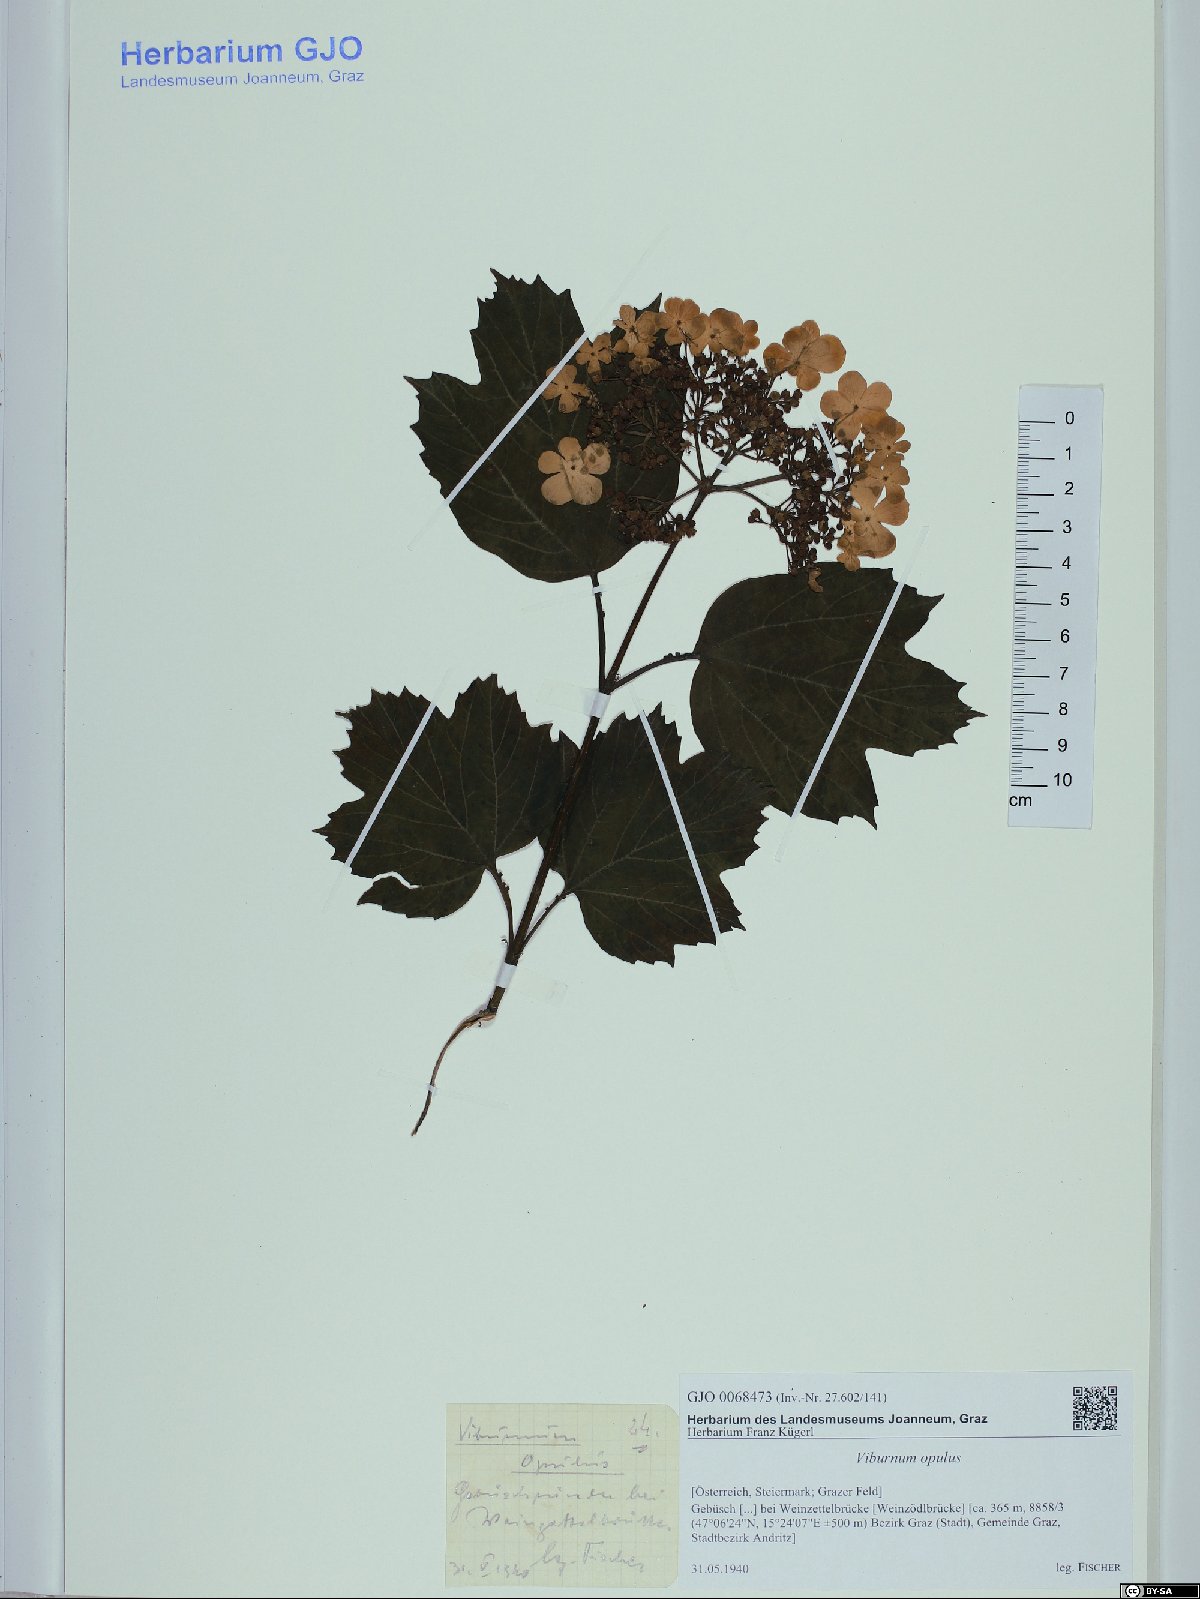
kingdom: Plantae
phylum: Tracheophyta
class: Magnoliopsida
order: Dipsacales
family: Viburnaceae
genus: Viburnum
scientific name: Viburnum opulus
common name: Guelder-rose
